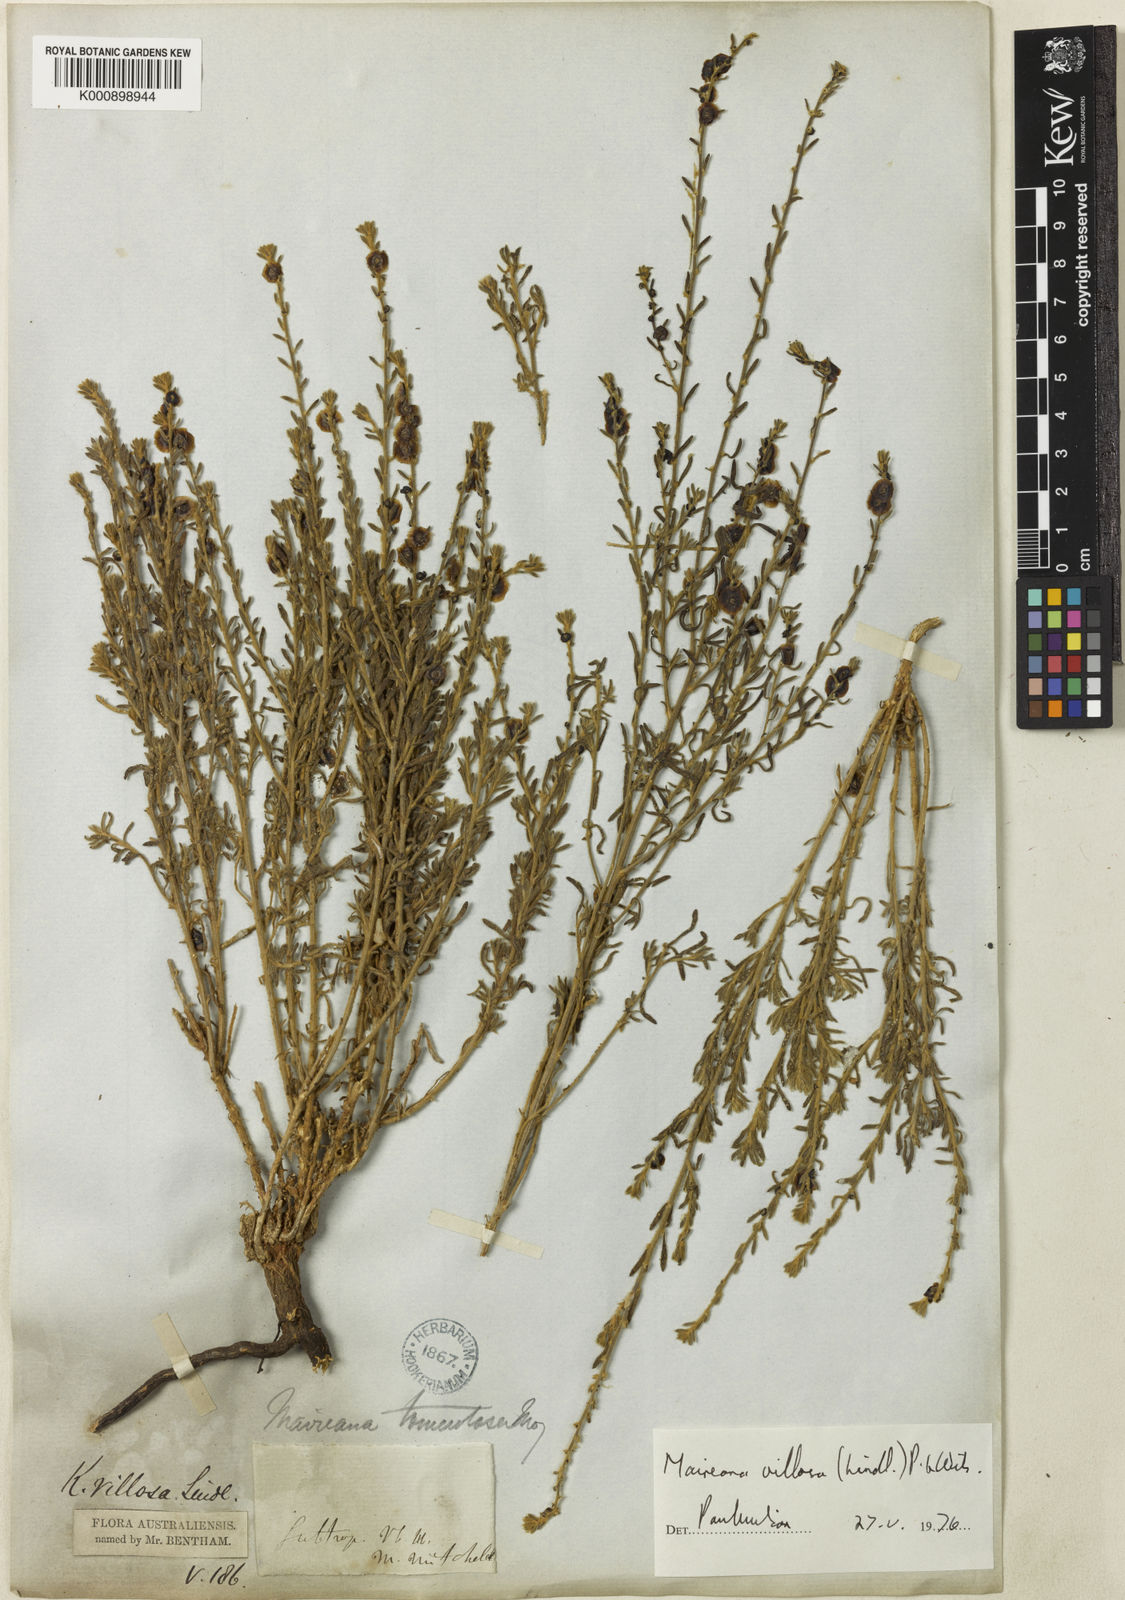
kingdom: Plantae
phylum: Tracheophyta
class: Magnoliopsida
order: Caryophyllales
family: Amaranthaceae
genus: Maireana
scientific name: Maireana villosa
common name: Silky bluebush
